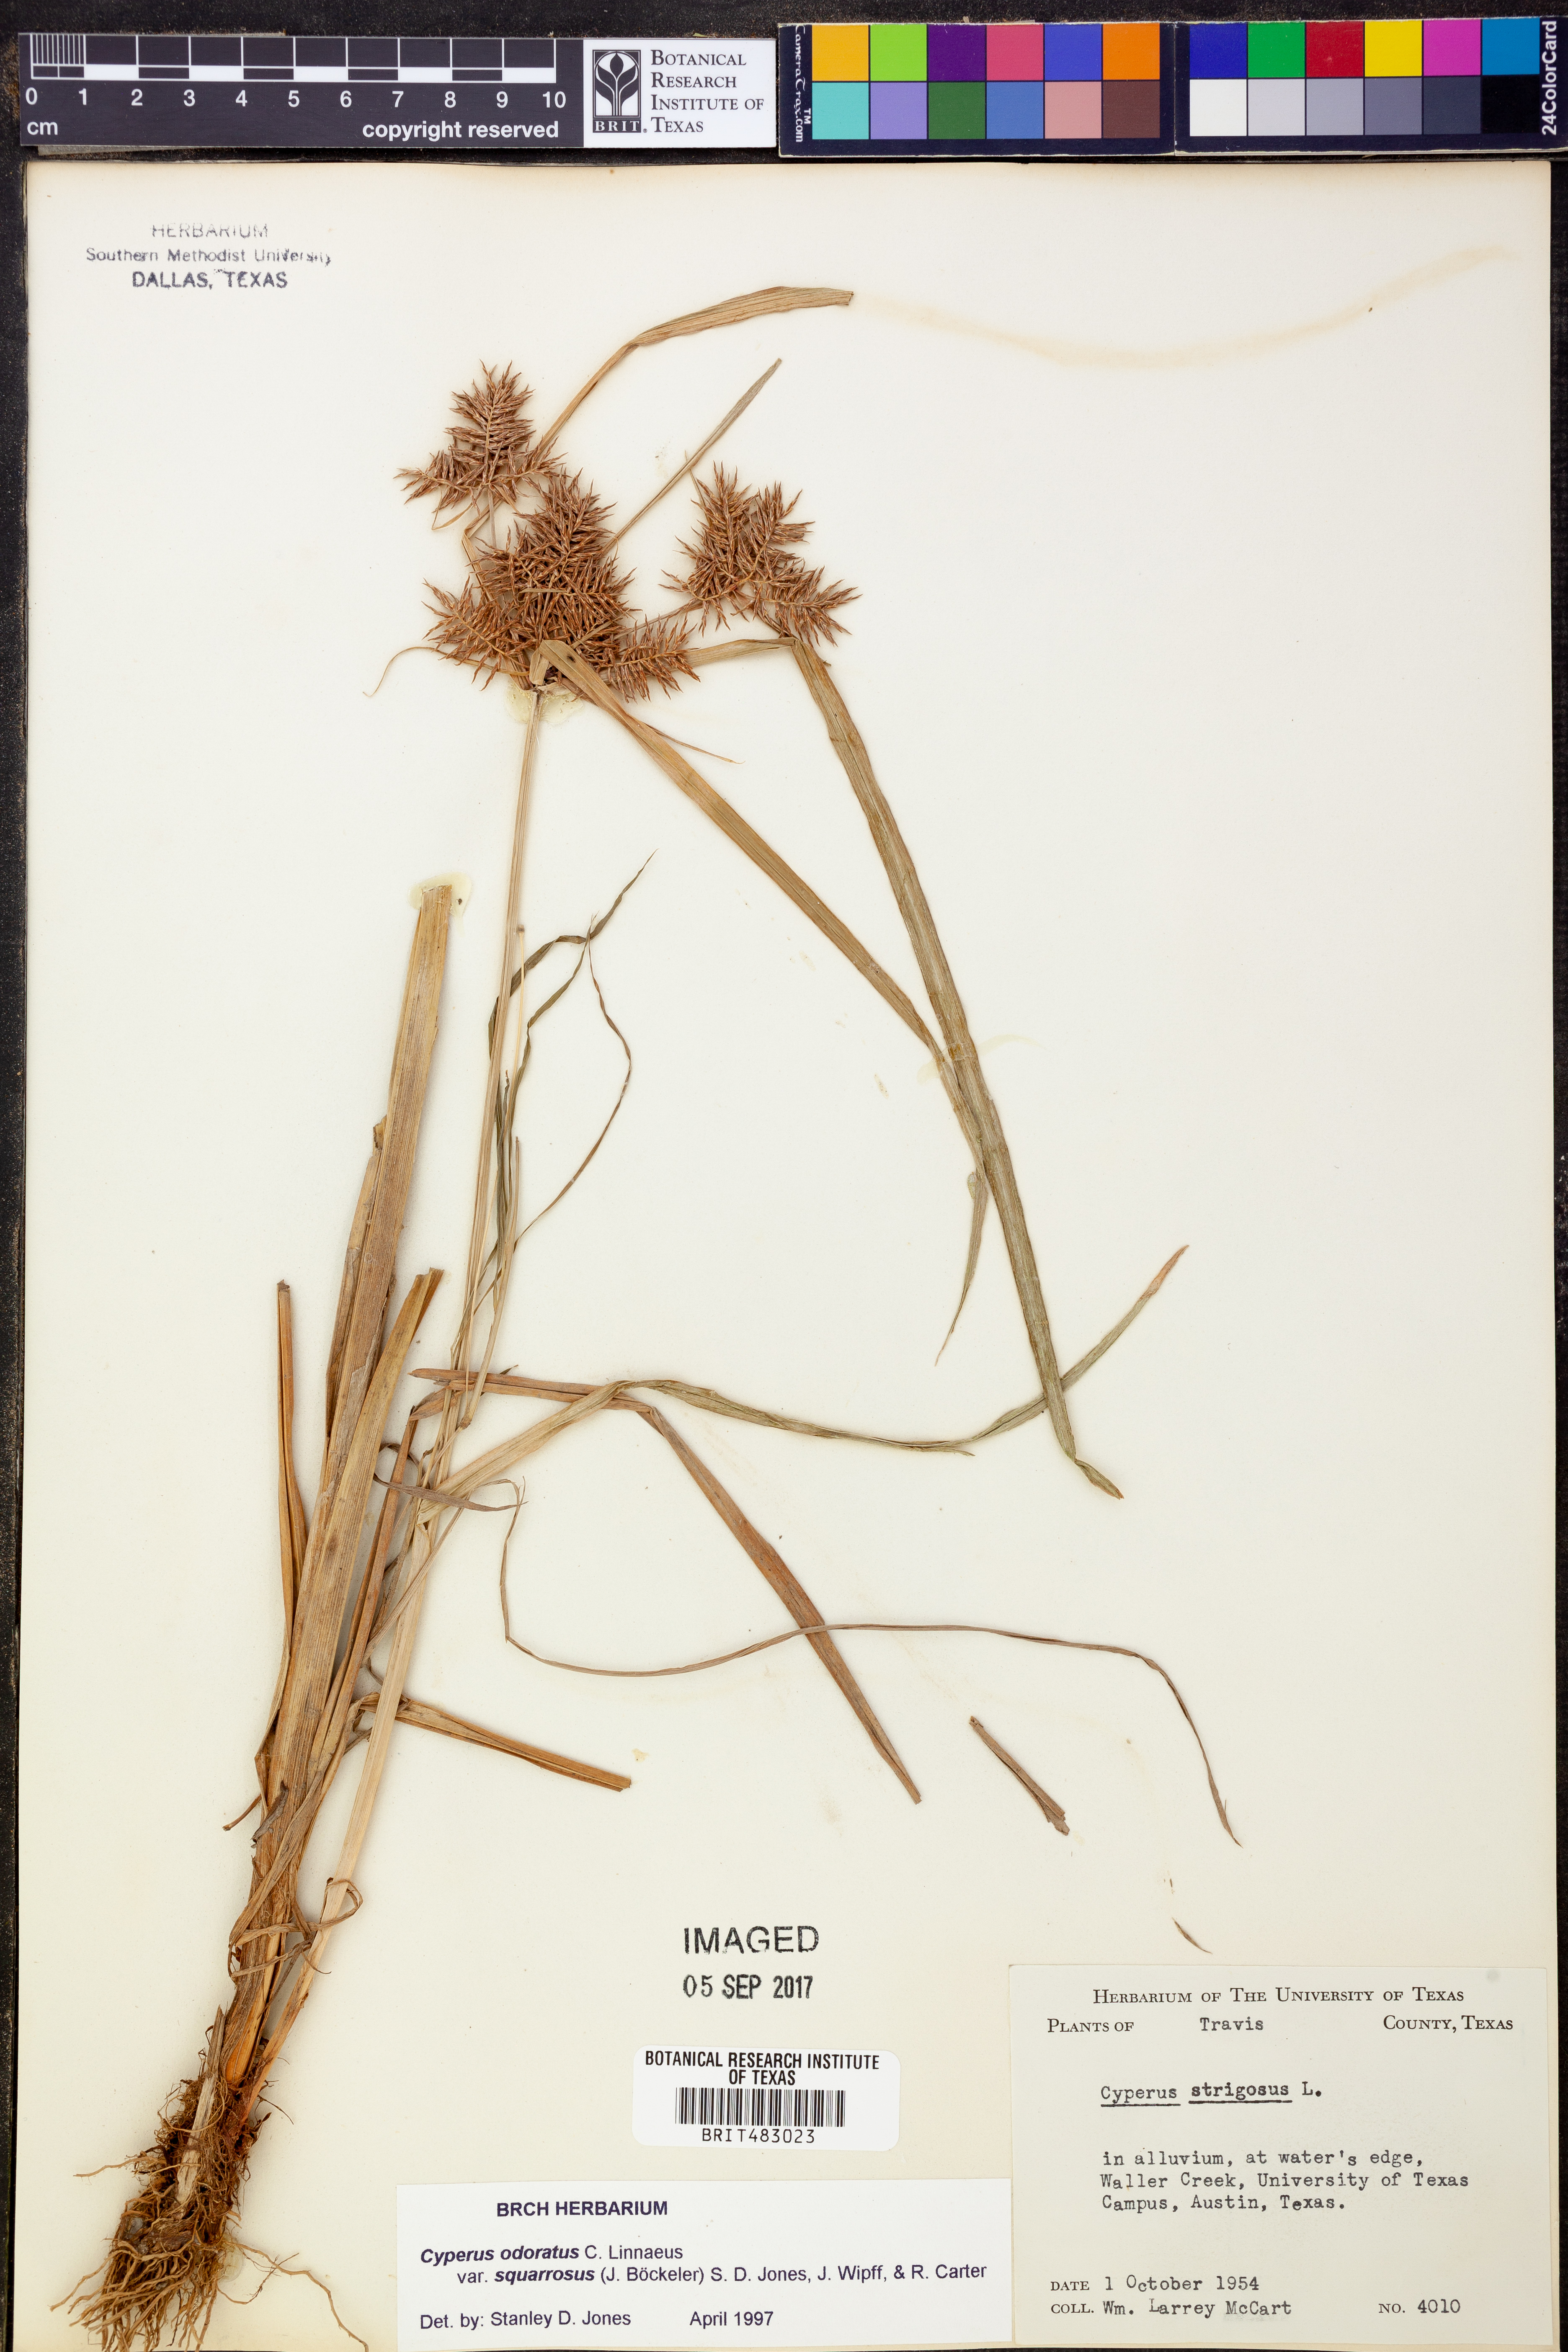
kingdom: Plantae
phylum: Tracheophyta
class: Liliopsida
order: Poales
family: Cyperaceae
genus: Cyperus
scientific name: Cyperus odoratus
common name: Fragrant flatsedge
